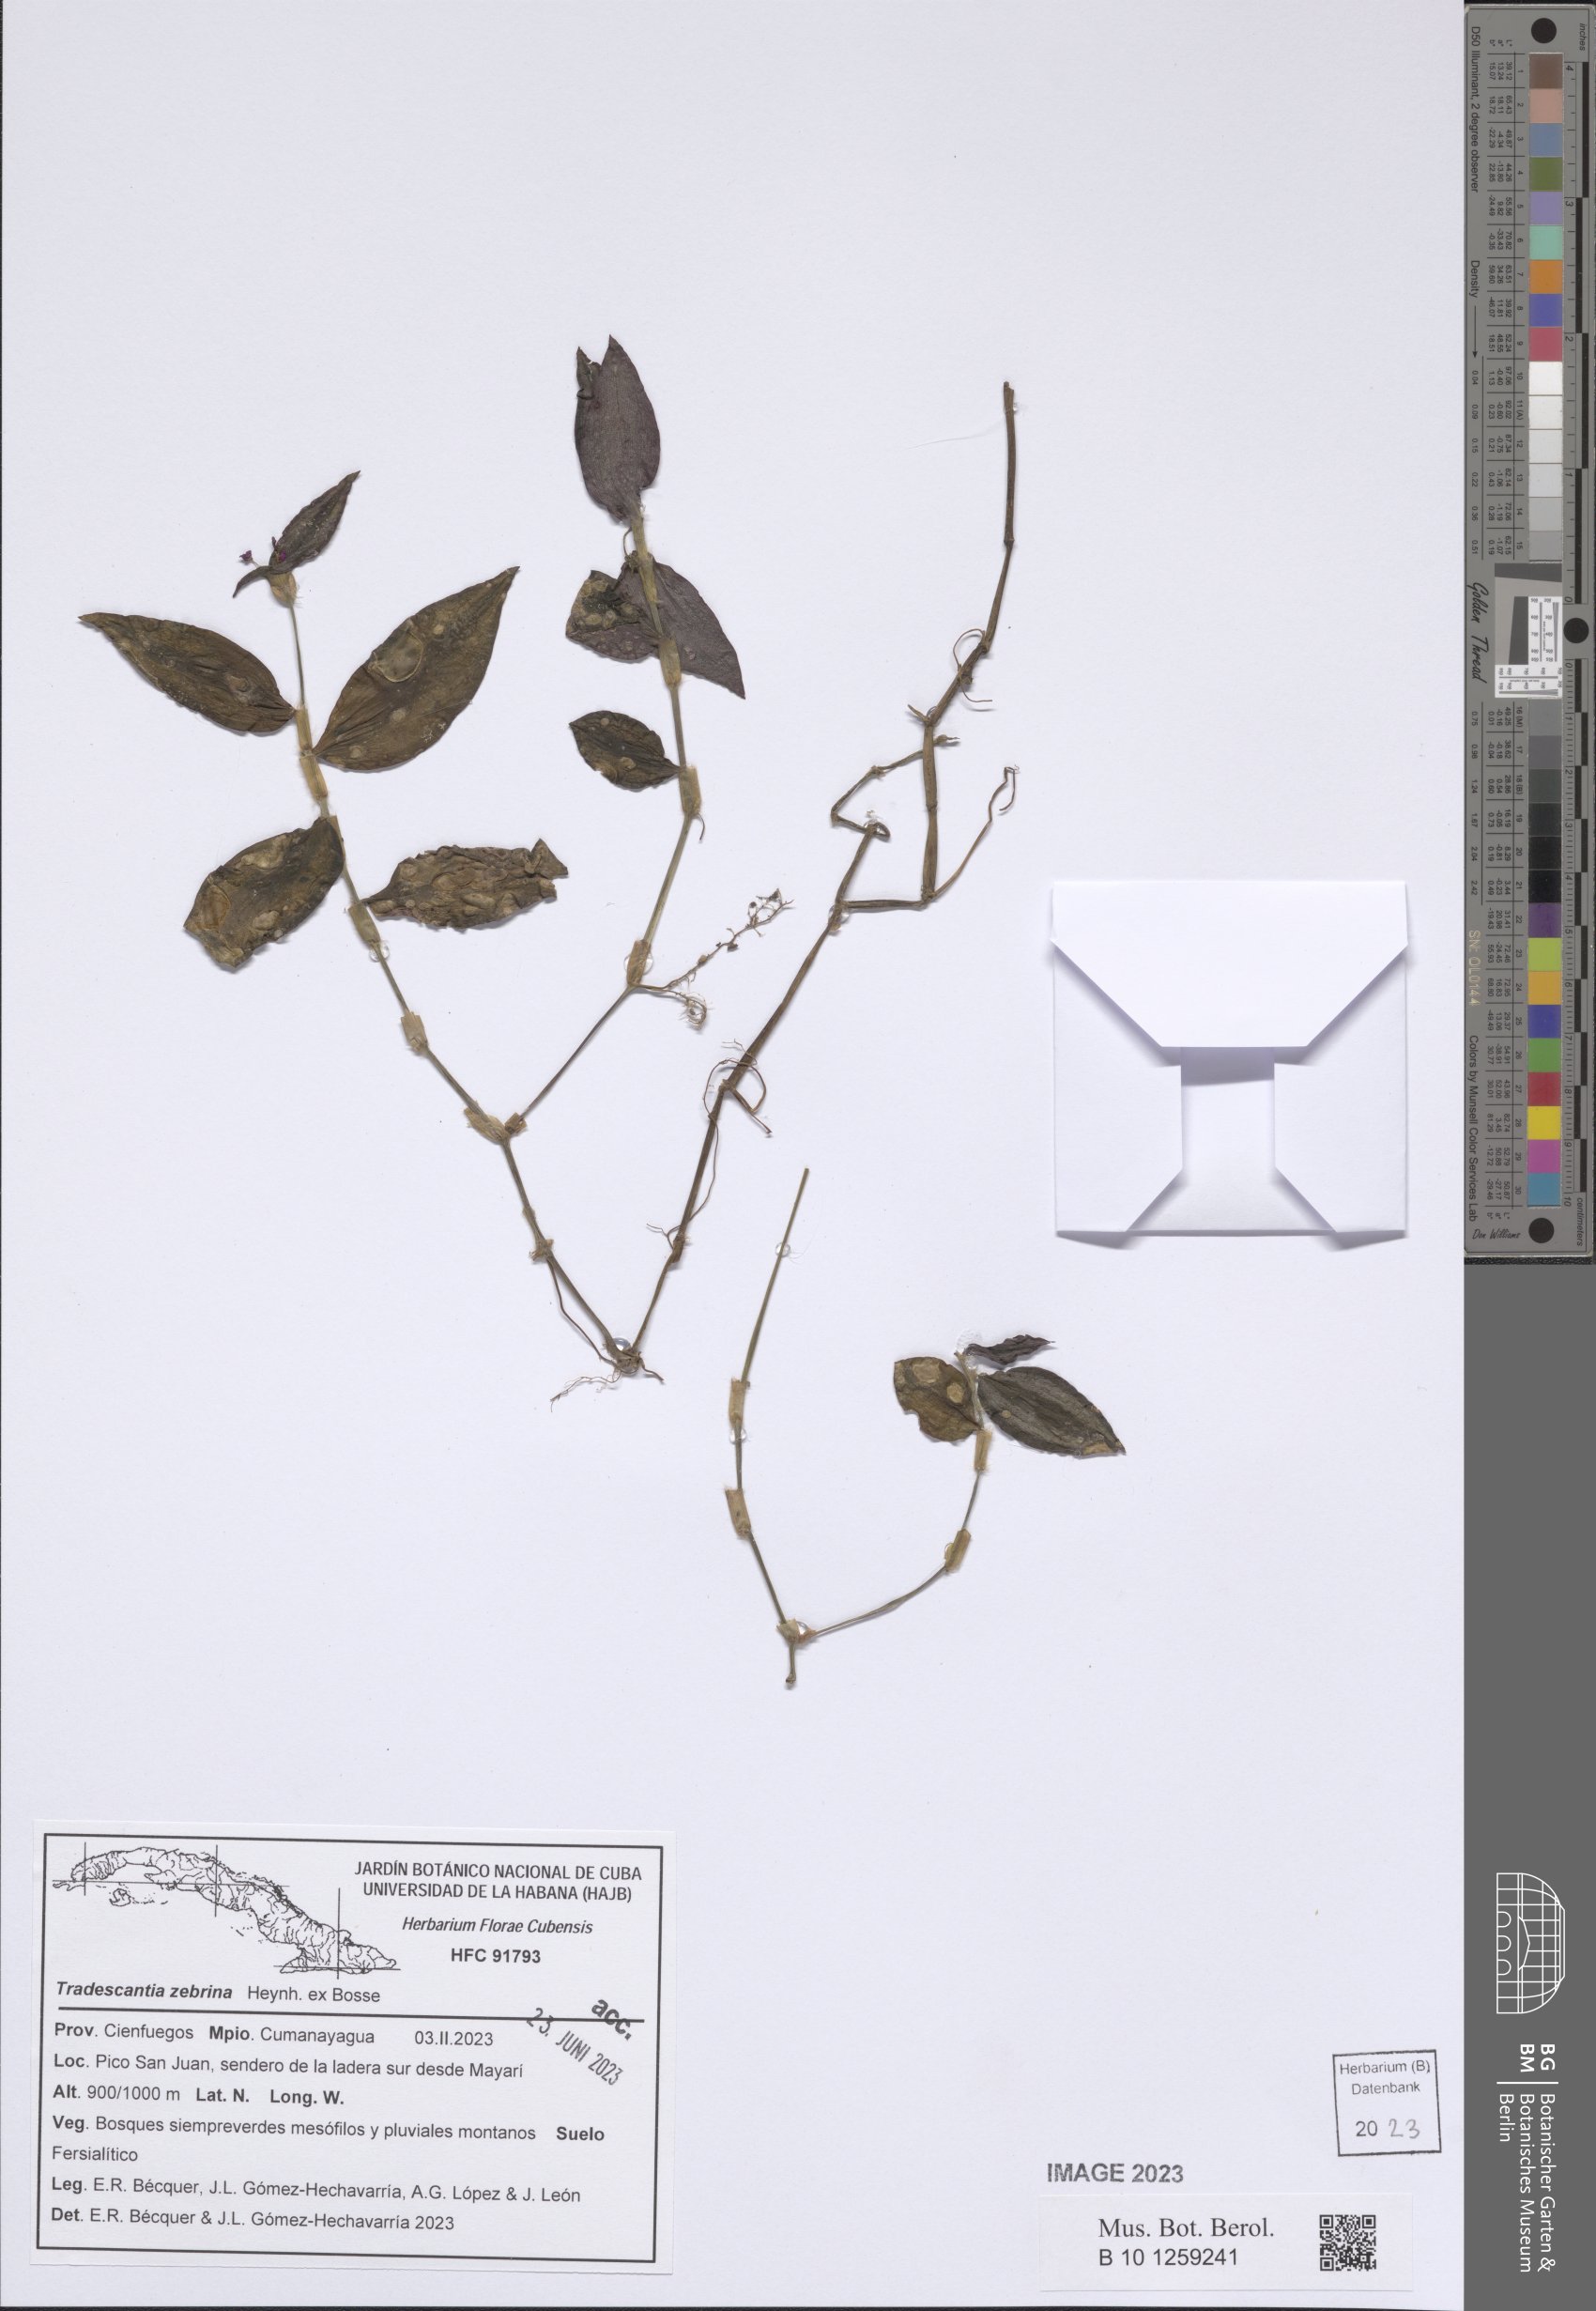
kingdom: Plantae
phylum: Tracheophyta
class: Liliopsida
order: Commelinales
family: Commelinaceae
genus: Tradescantia
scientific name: Tradescantia zebrina
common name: Inchplant
